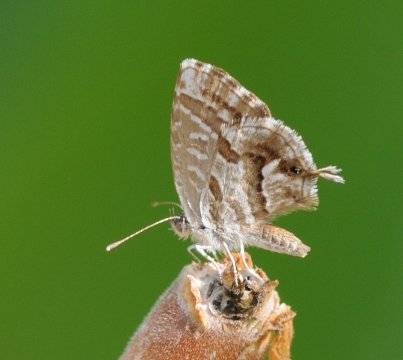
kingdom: Animalia
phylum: Arthropoda
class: Insecta
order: Lepidoptera
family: Lycaenidae
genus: Cacyreus
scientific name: Cacyreus marshalli
